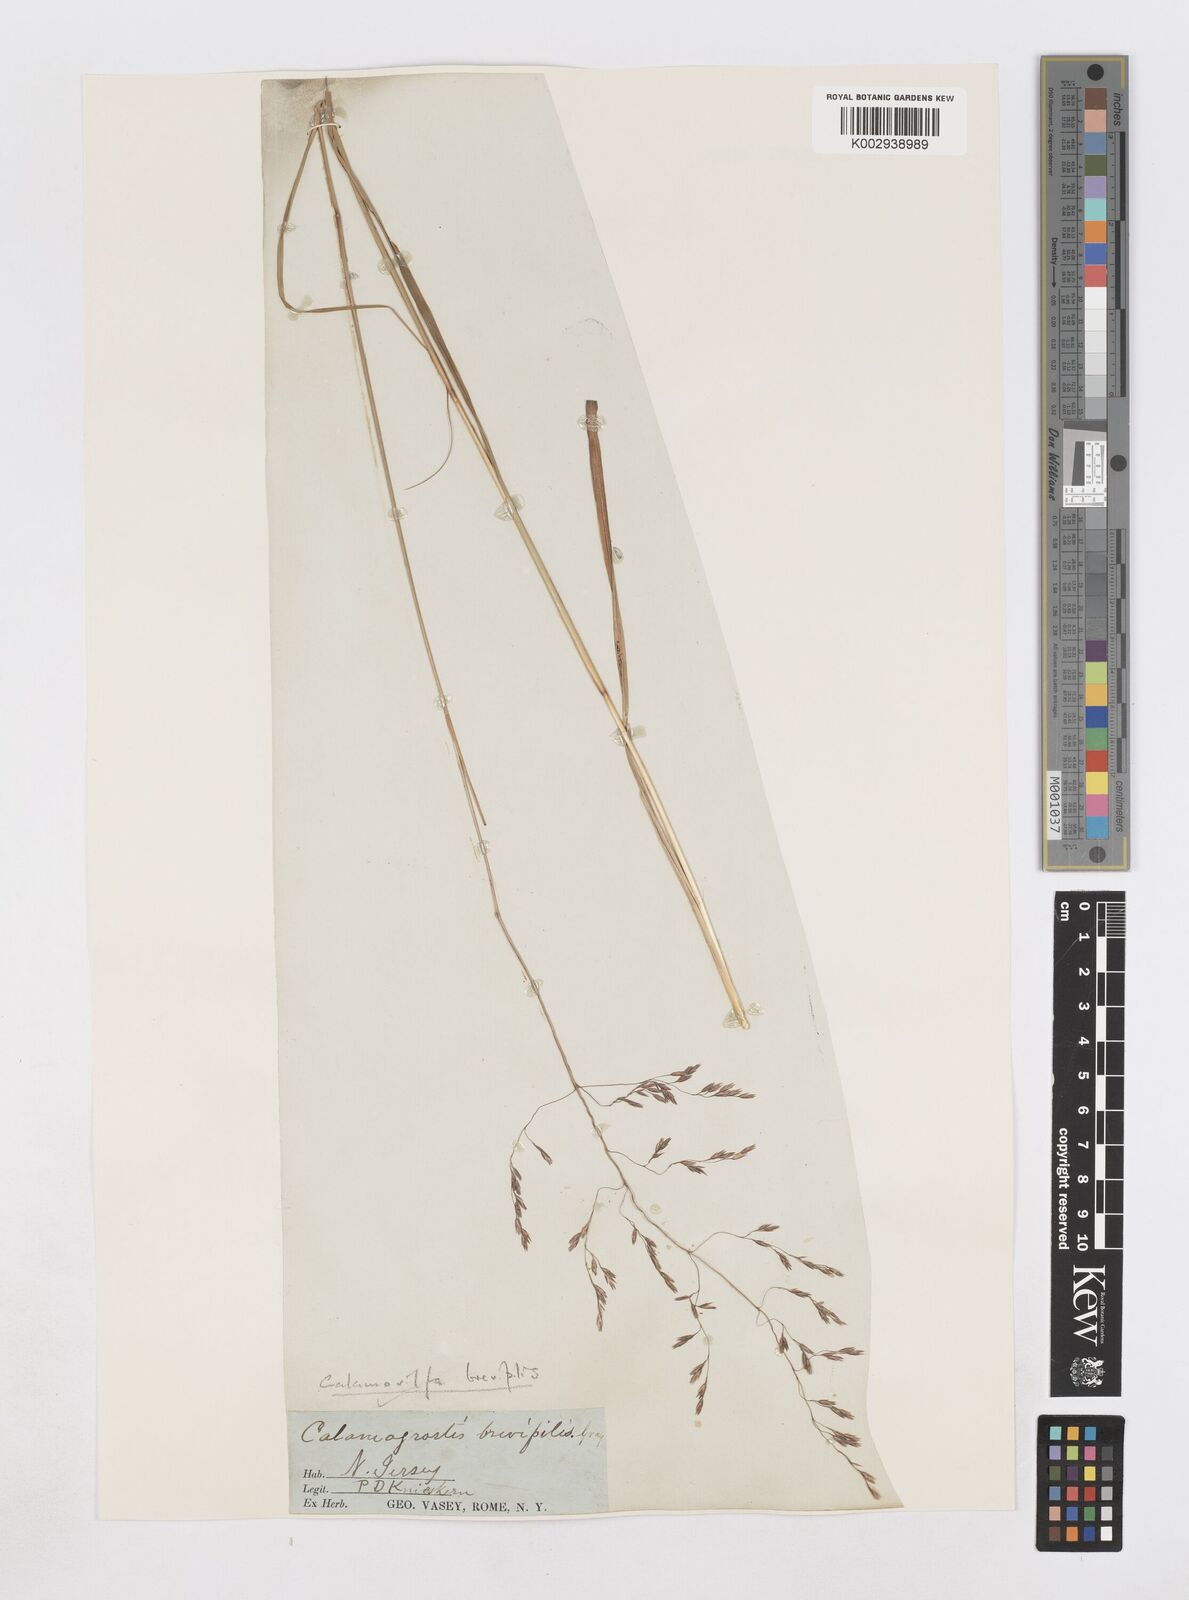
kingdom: Plantae
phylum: Tracheophyta
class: Liliopsida
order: Poales
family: Poaceae
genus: Sporobolus
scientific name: Sporobolus brevipilis
